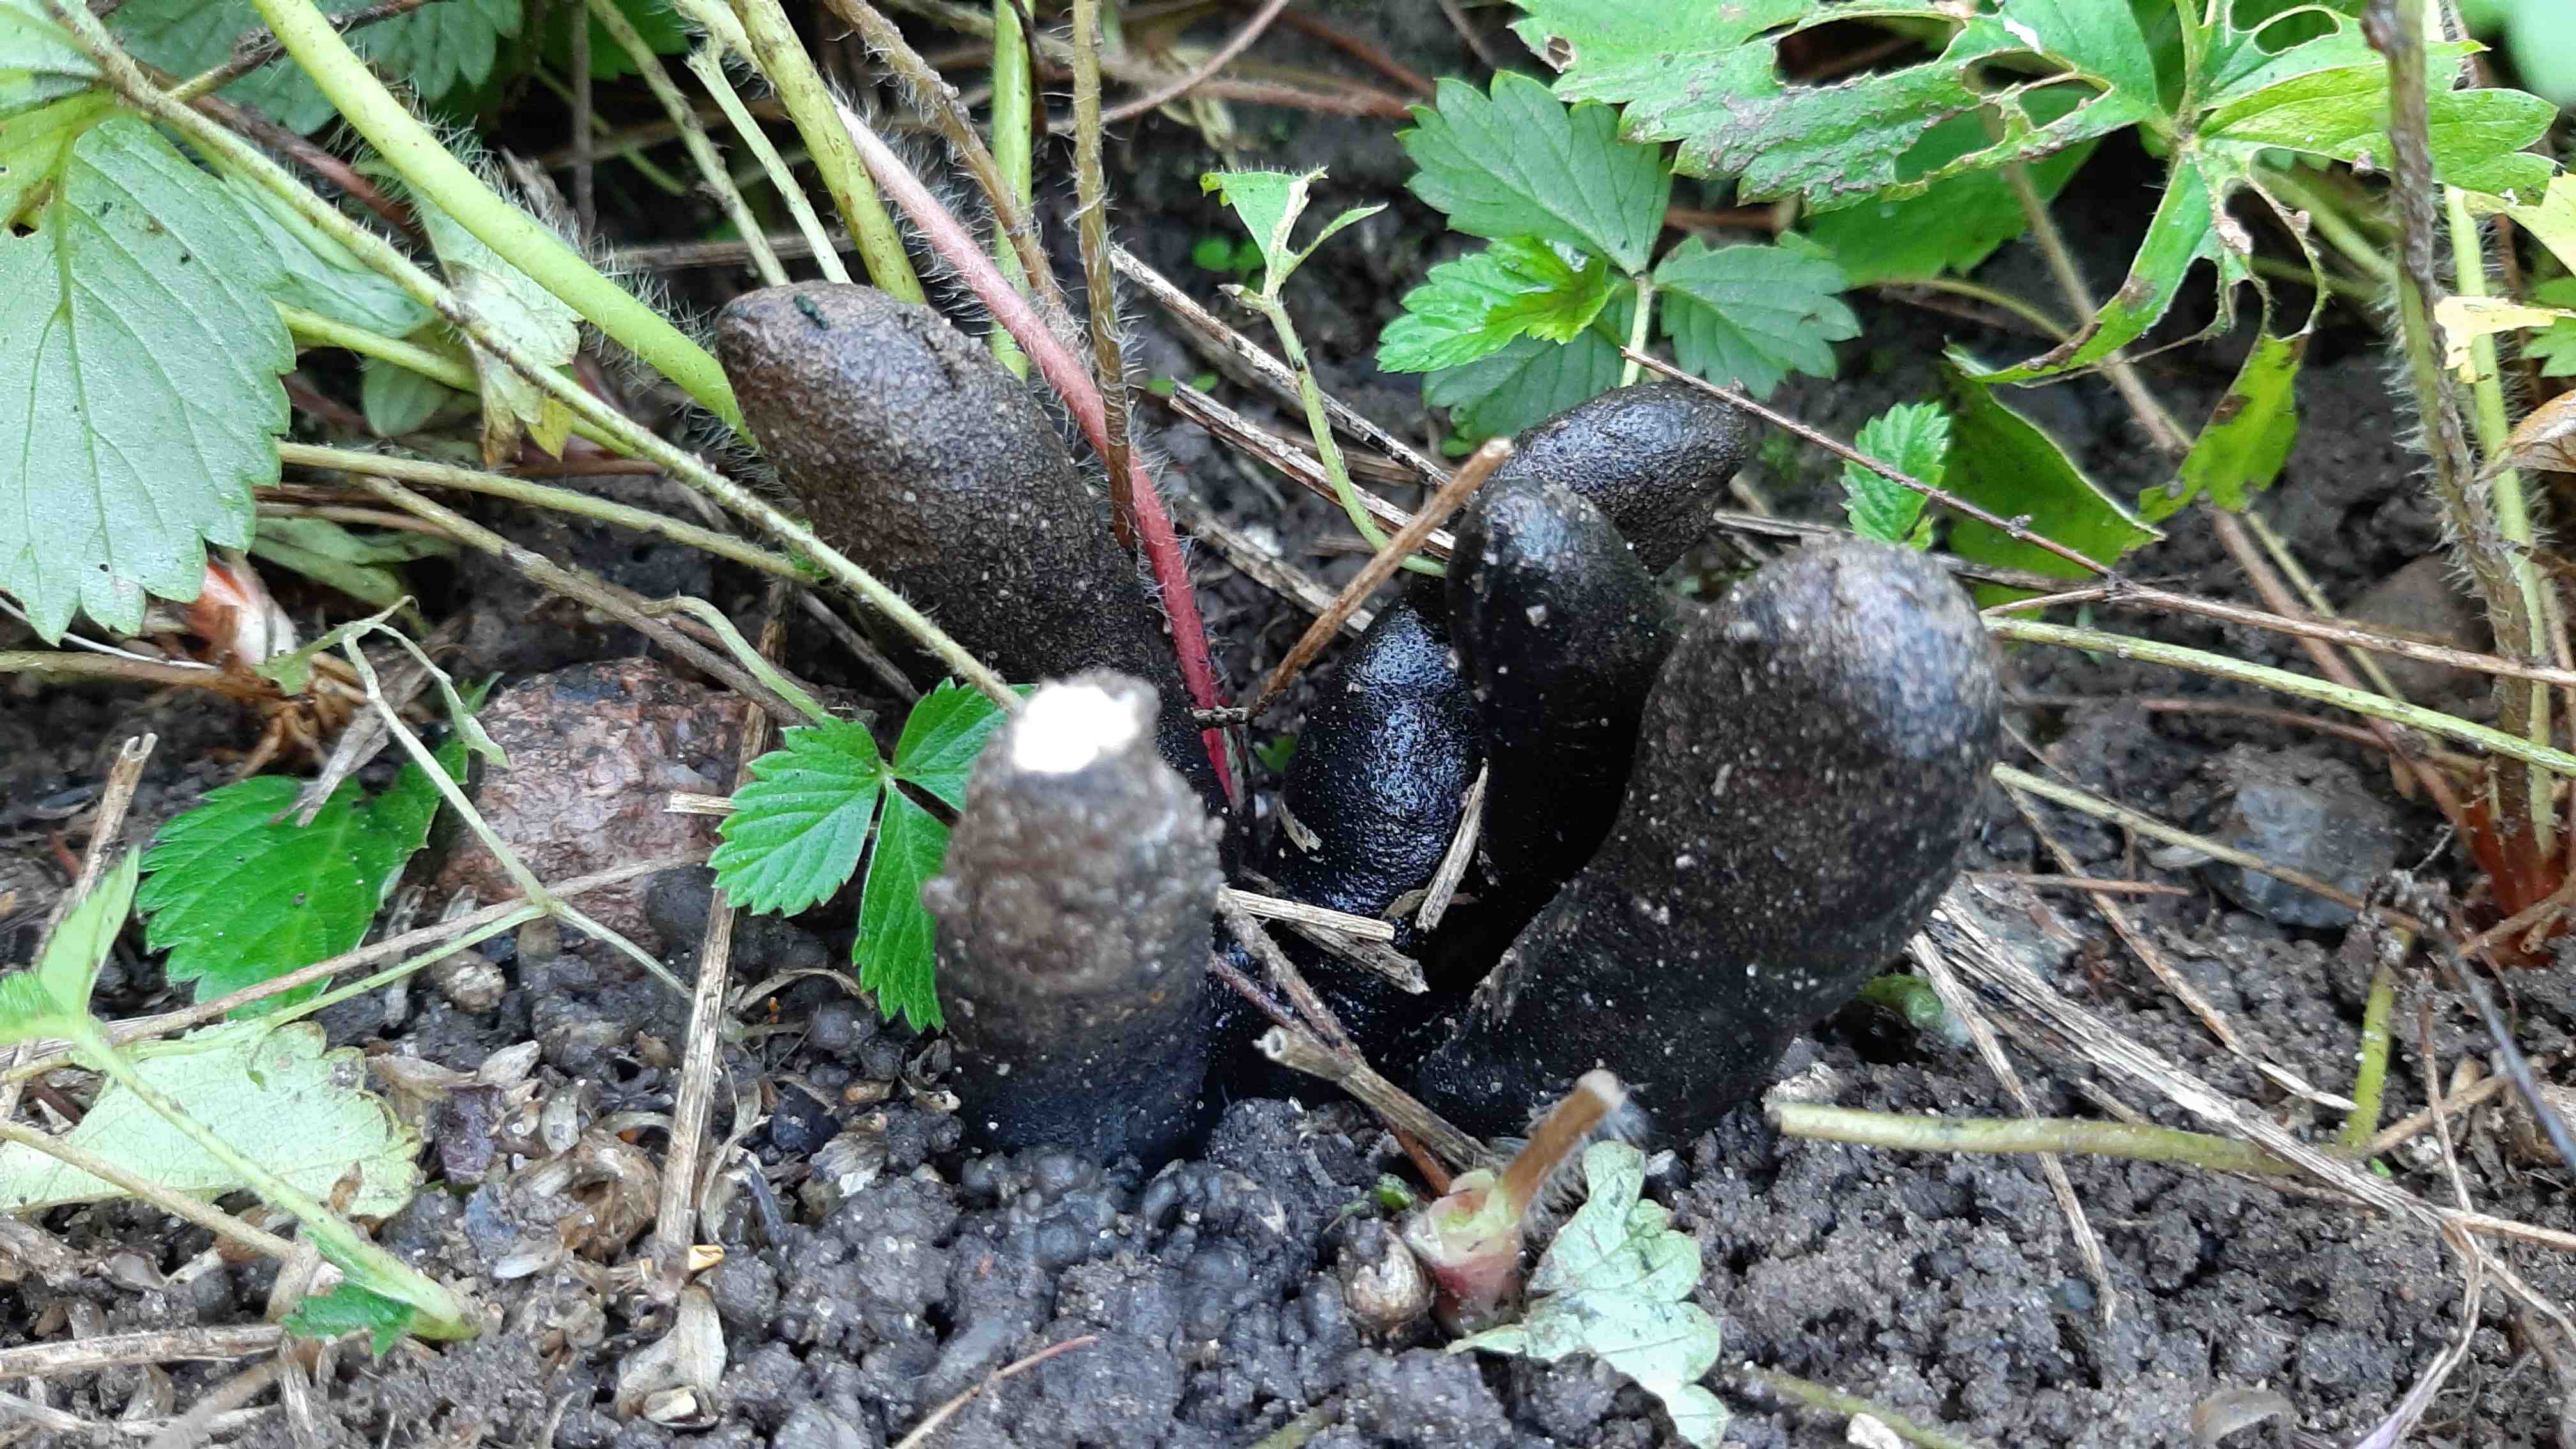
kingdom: Fungi
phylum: Ascomycota
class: Sordariomycetes
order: Xylariales
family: Xylariaceae
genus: Xylaria
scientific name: Xylaria polymorpha
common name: kølle-stødsvamp
